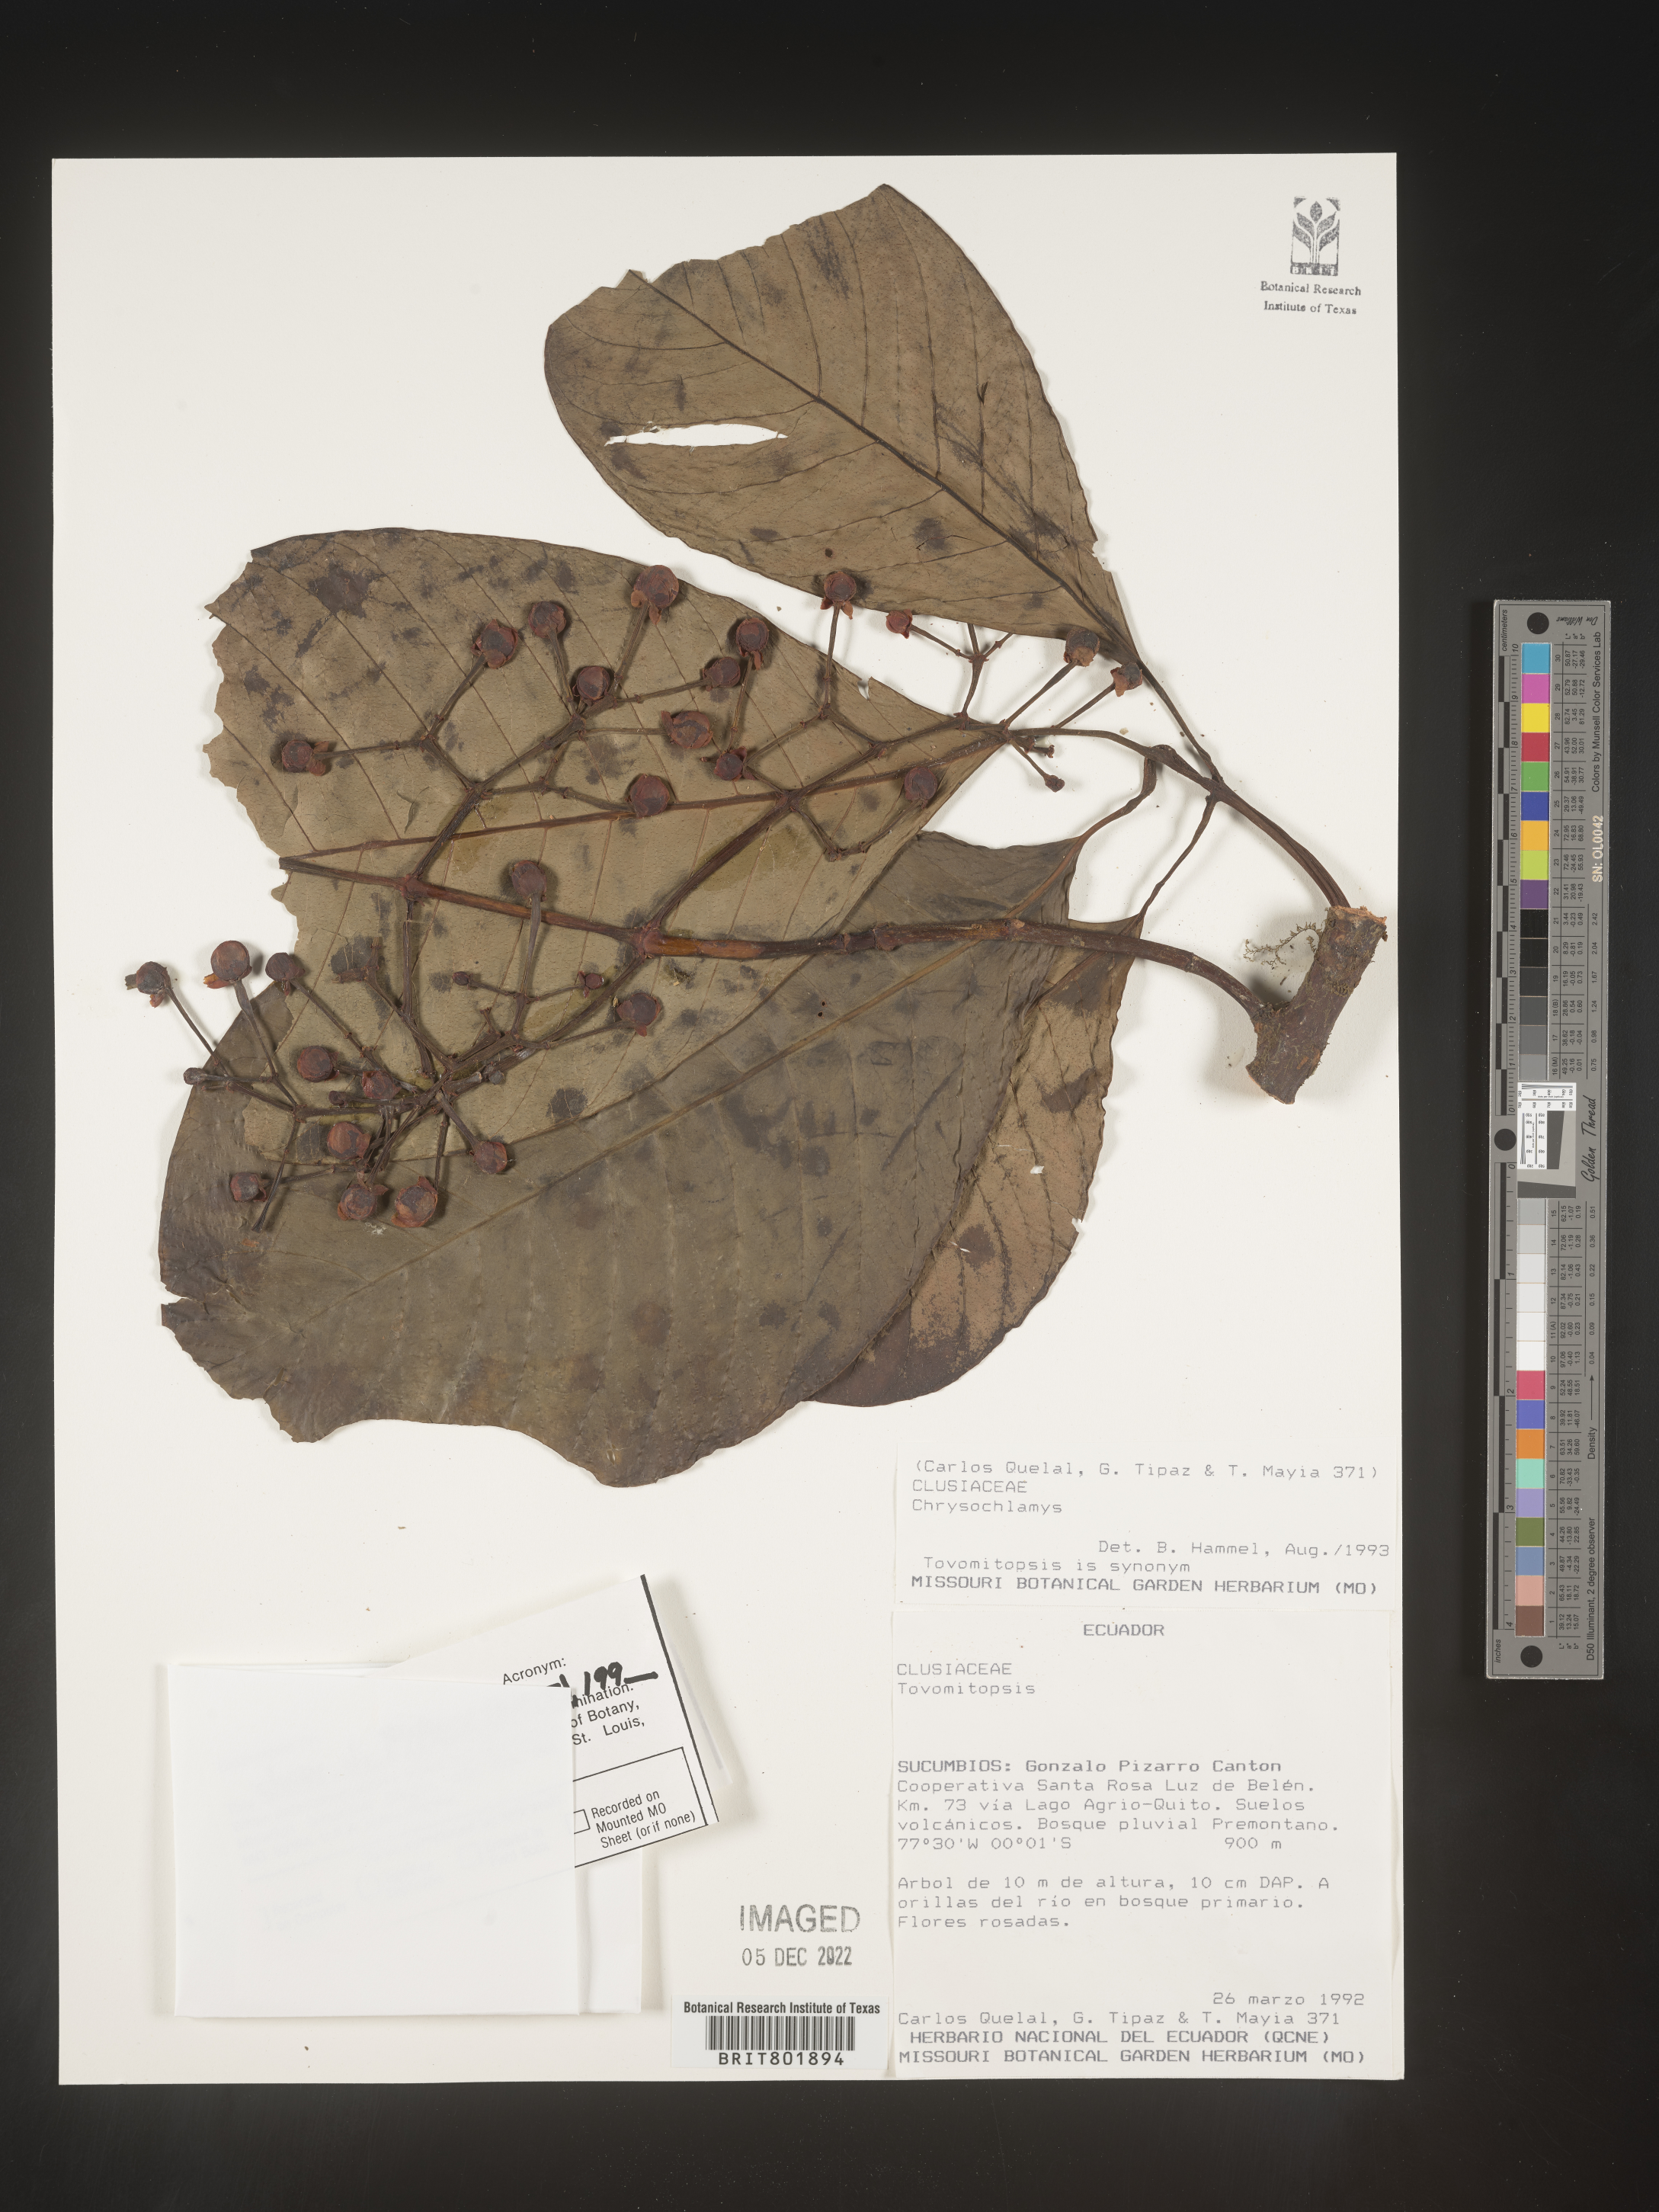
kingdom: Plantae
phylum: Tracheophyta
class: Magnoliopsida
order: Malpighiales
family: Clusiaceae
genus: Chrysochlamys
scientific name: Chrysochlamys
